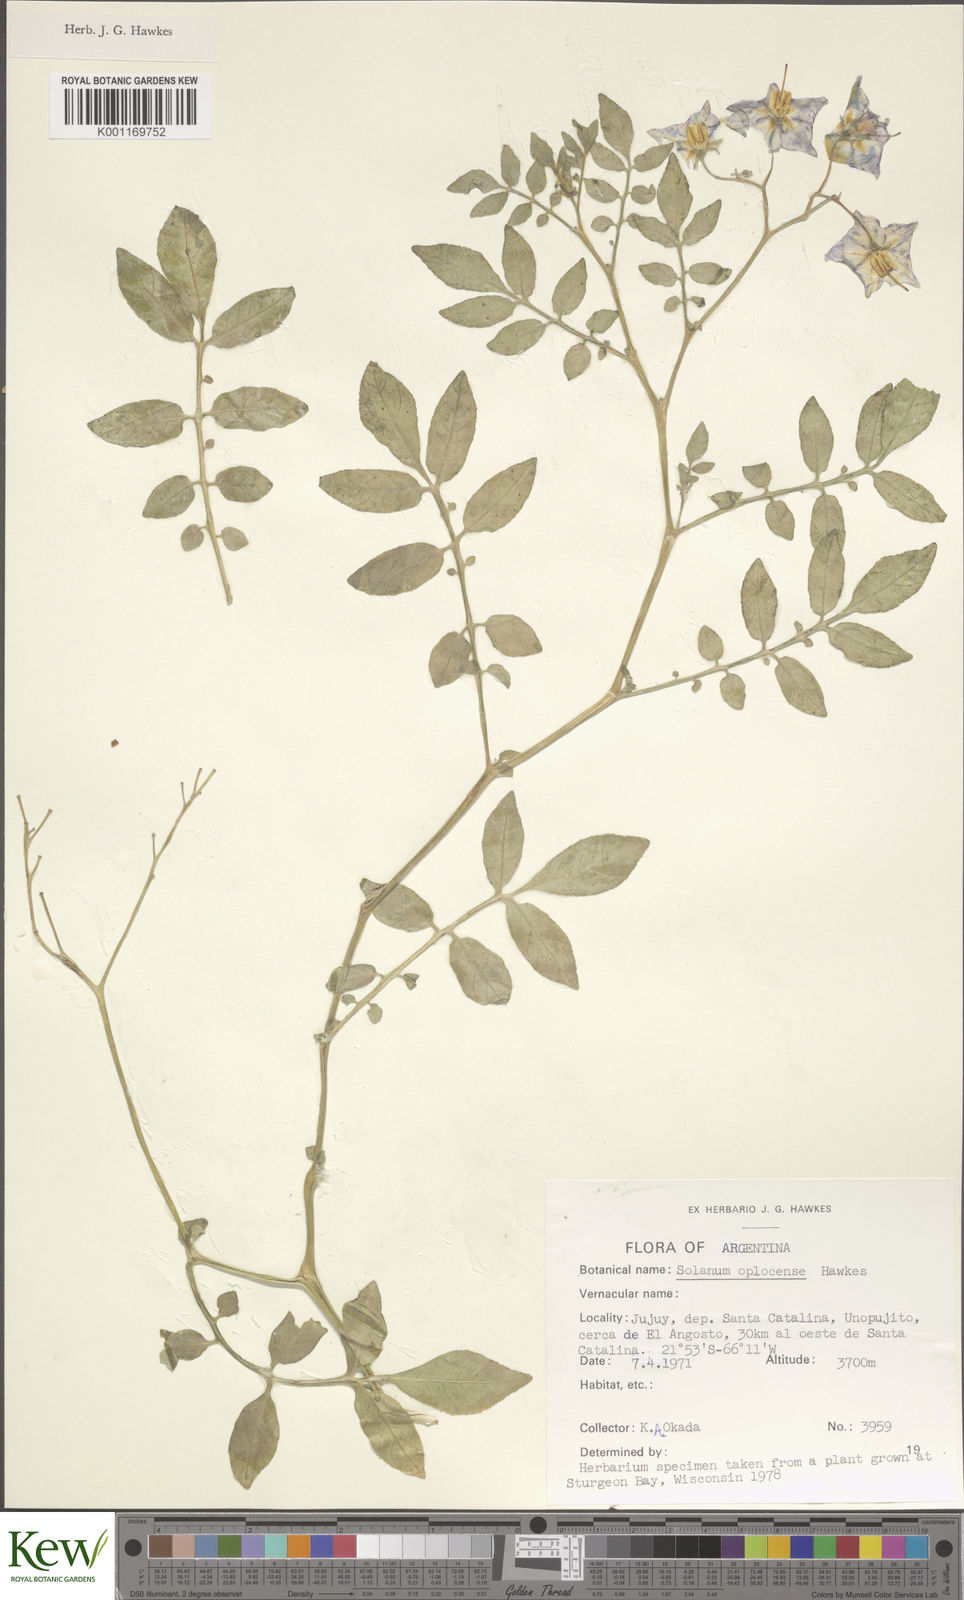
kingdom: Plantae
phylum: Tracheophyta
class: Magnoliopsida
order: Solanales
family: Solanaceae
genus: Solanum
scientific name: Solanum brevicaule
